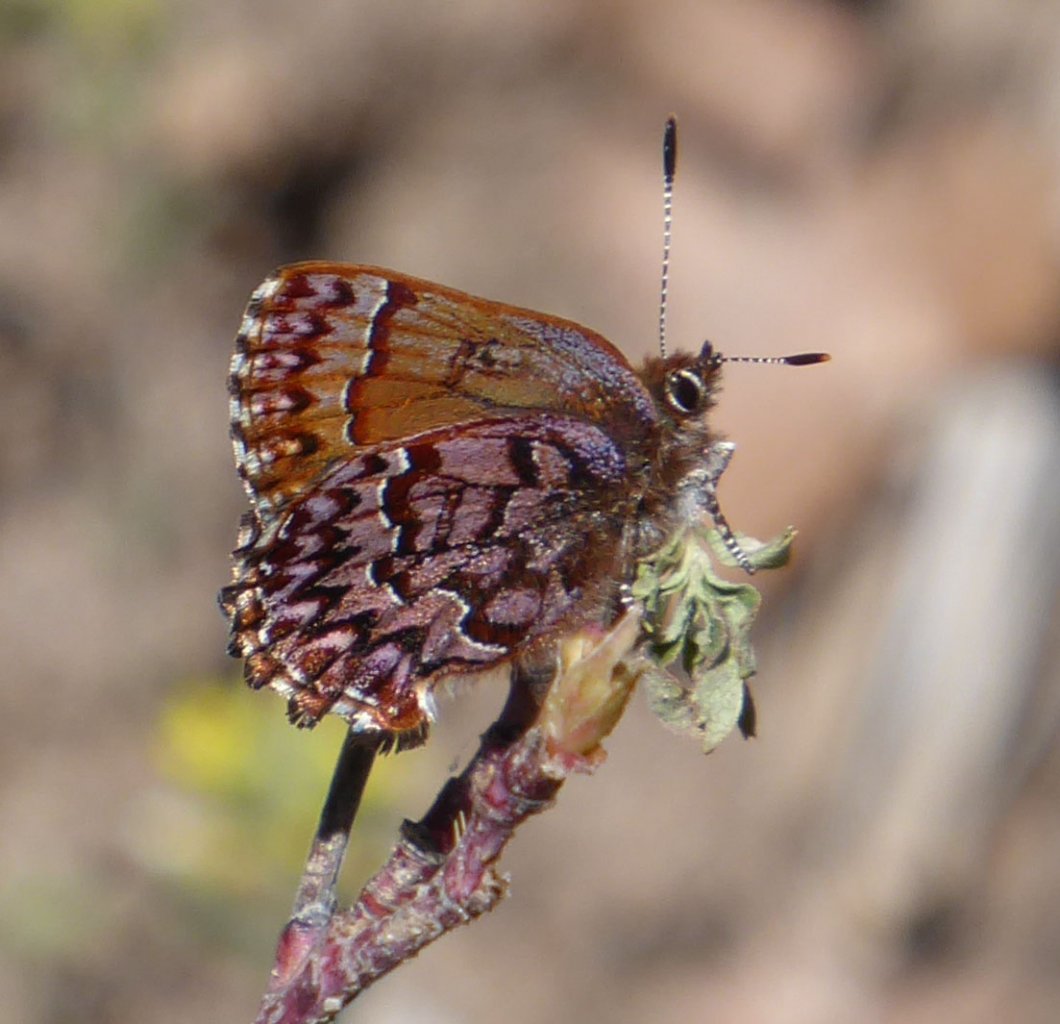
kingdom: Animalia
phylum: Arthropoda
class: Insecta
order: Lepidoptera
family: Lycaenidae
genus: Incisalia
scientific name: Incisalia eryphon
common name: Western Pine Elfin
